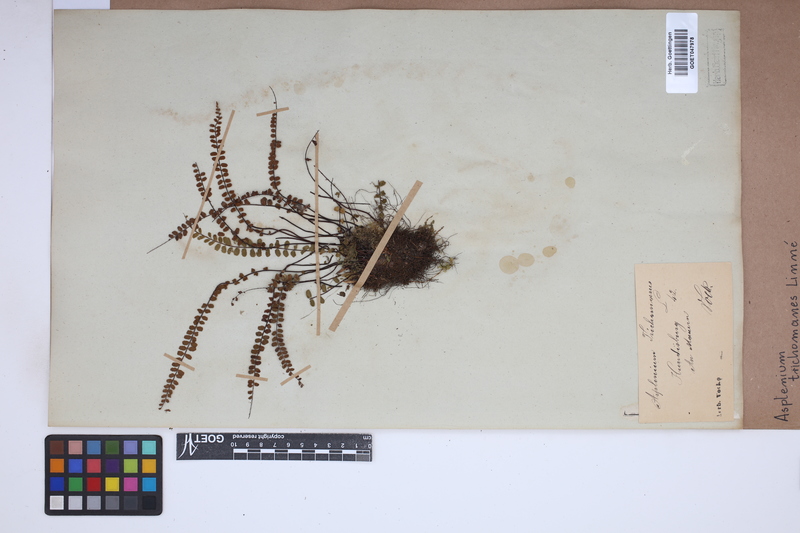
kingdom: Plantae
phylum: Tracheophyta
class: Polypodiopsida
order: Polypodiales
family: Aspleniaceae
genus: Asplenium
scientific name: Asplenium trichomanes
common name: Maidenhair spleenwort
